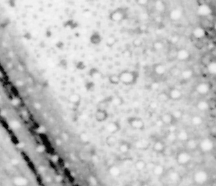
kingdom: Animalia
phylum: Chordata
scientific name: Chordata
